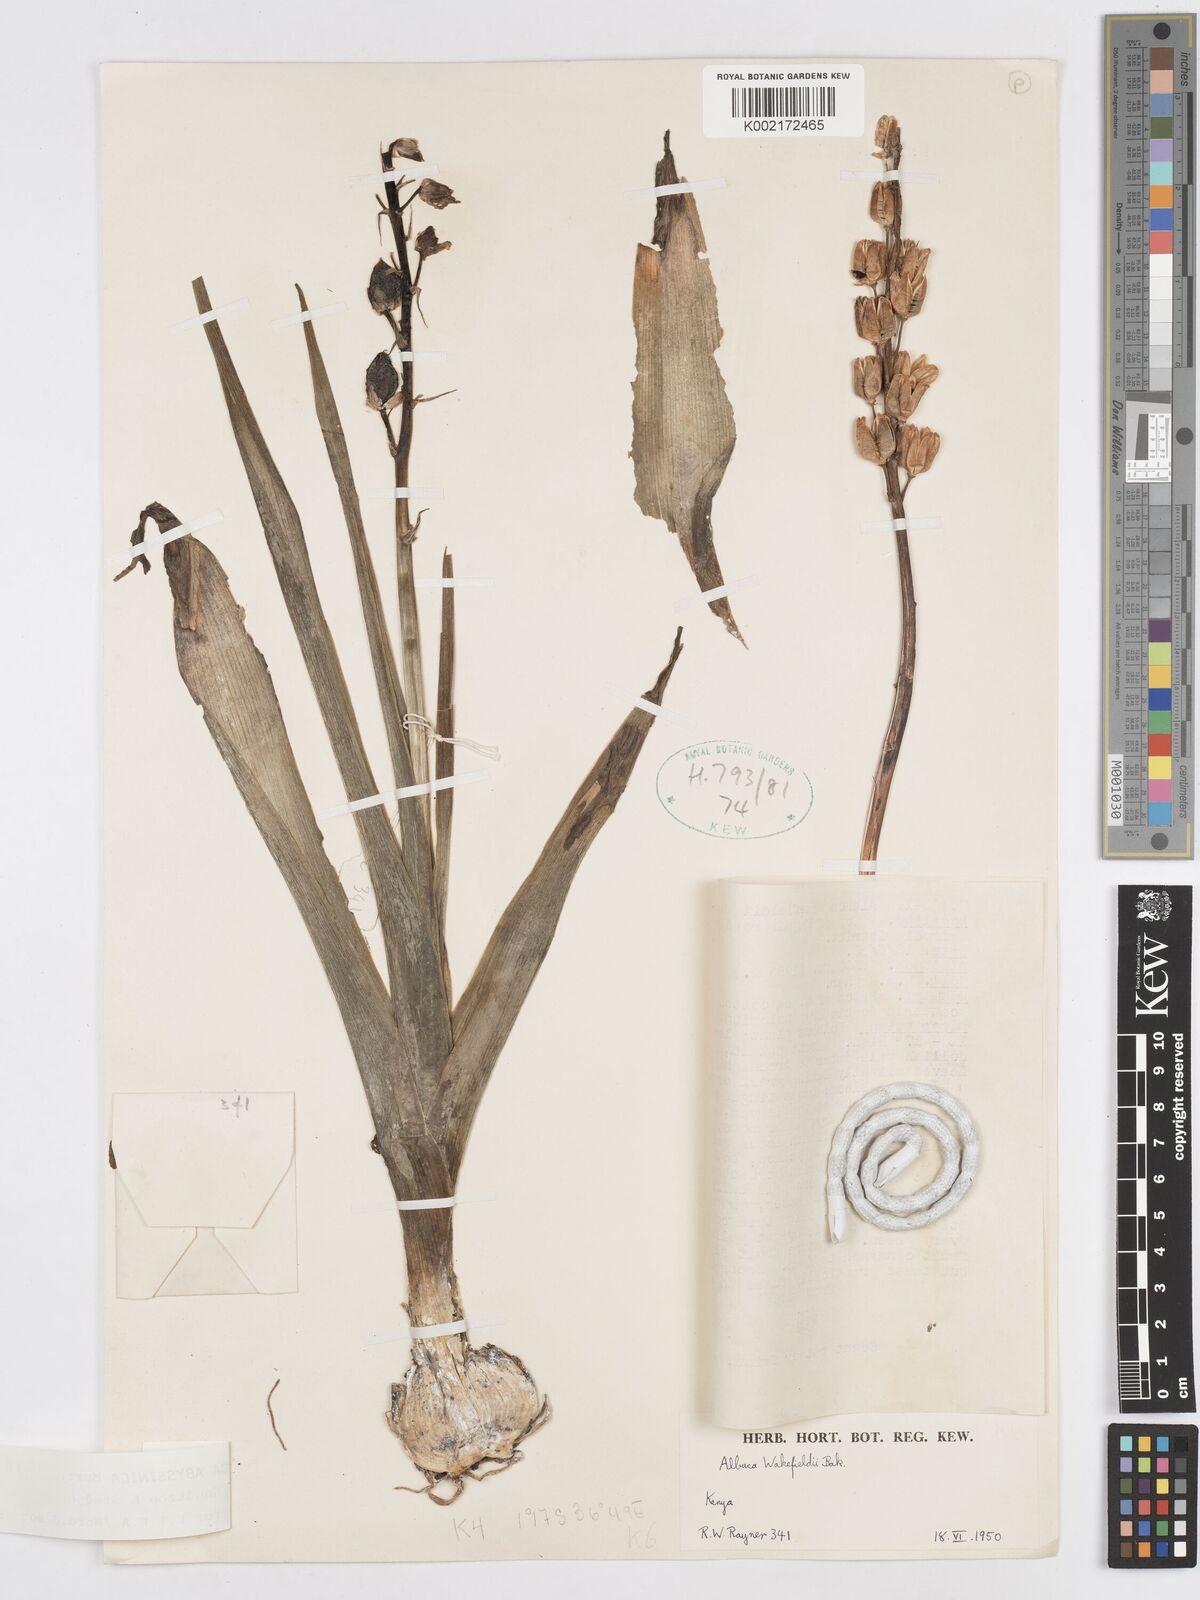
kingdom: Plantae
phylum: Tracheophyta
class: Liliopsida
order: Asparagales
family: Asparagaceae
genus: Albuca
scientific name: Albuca abyssinica
